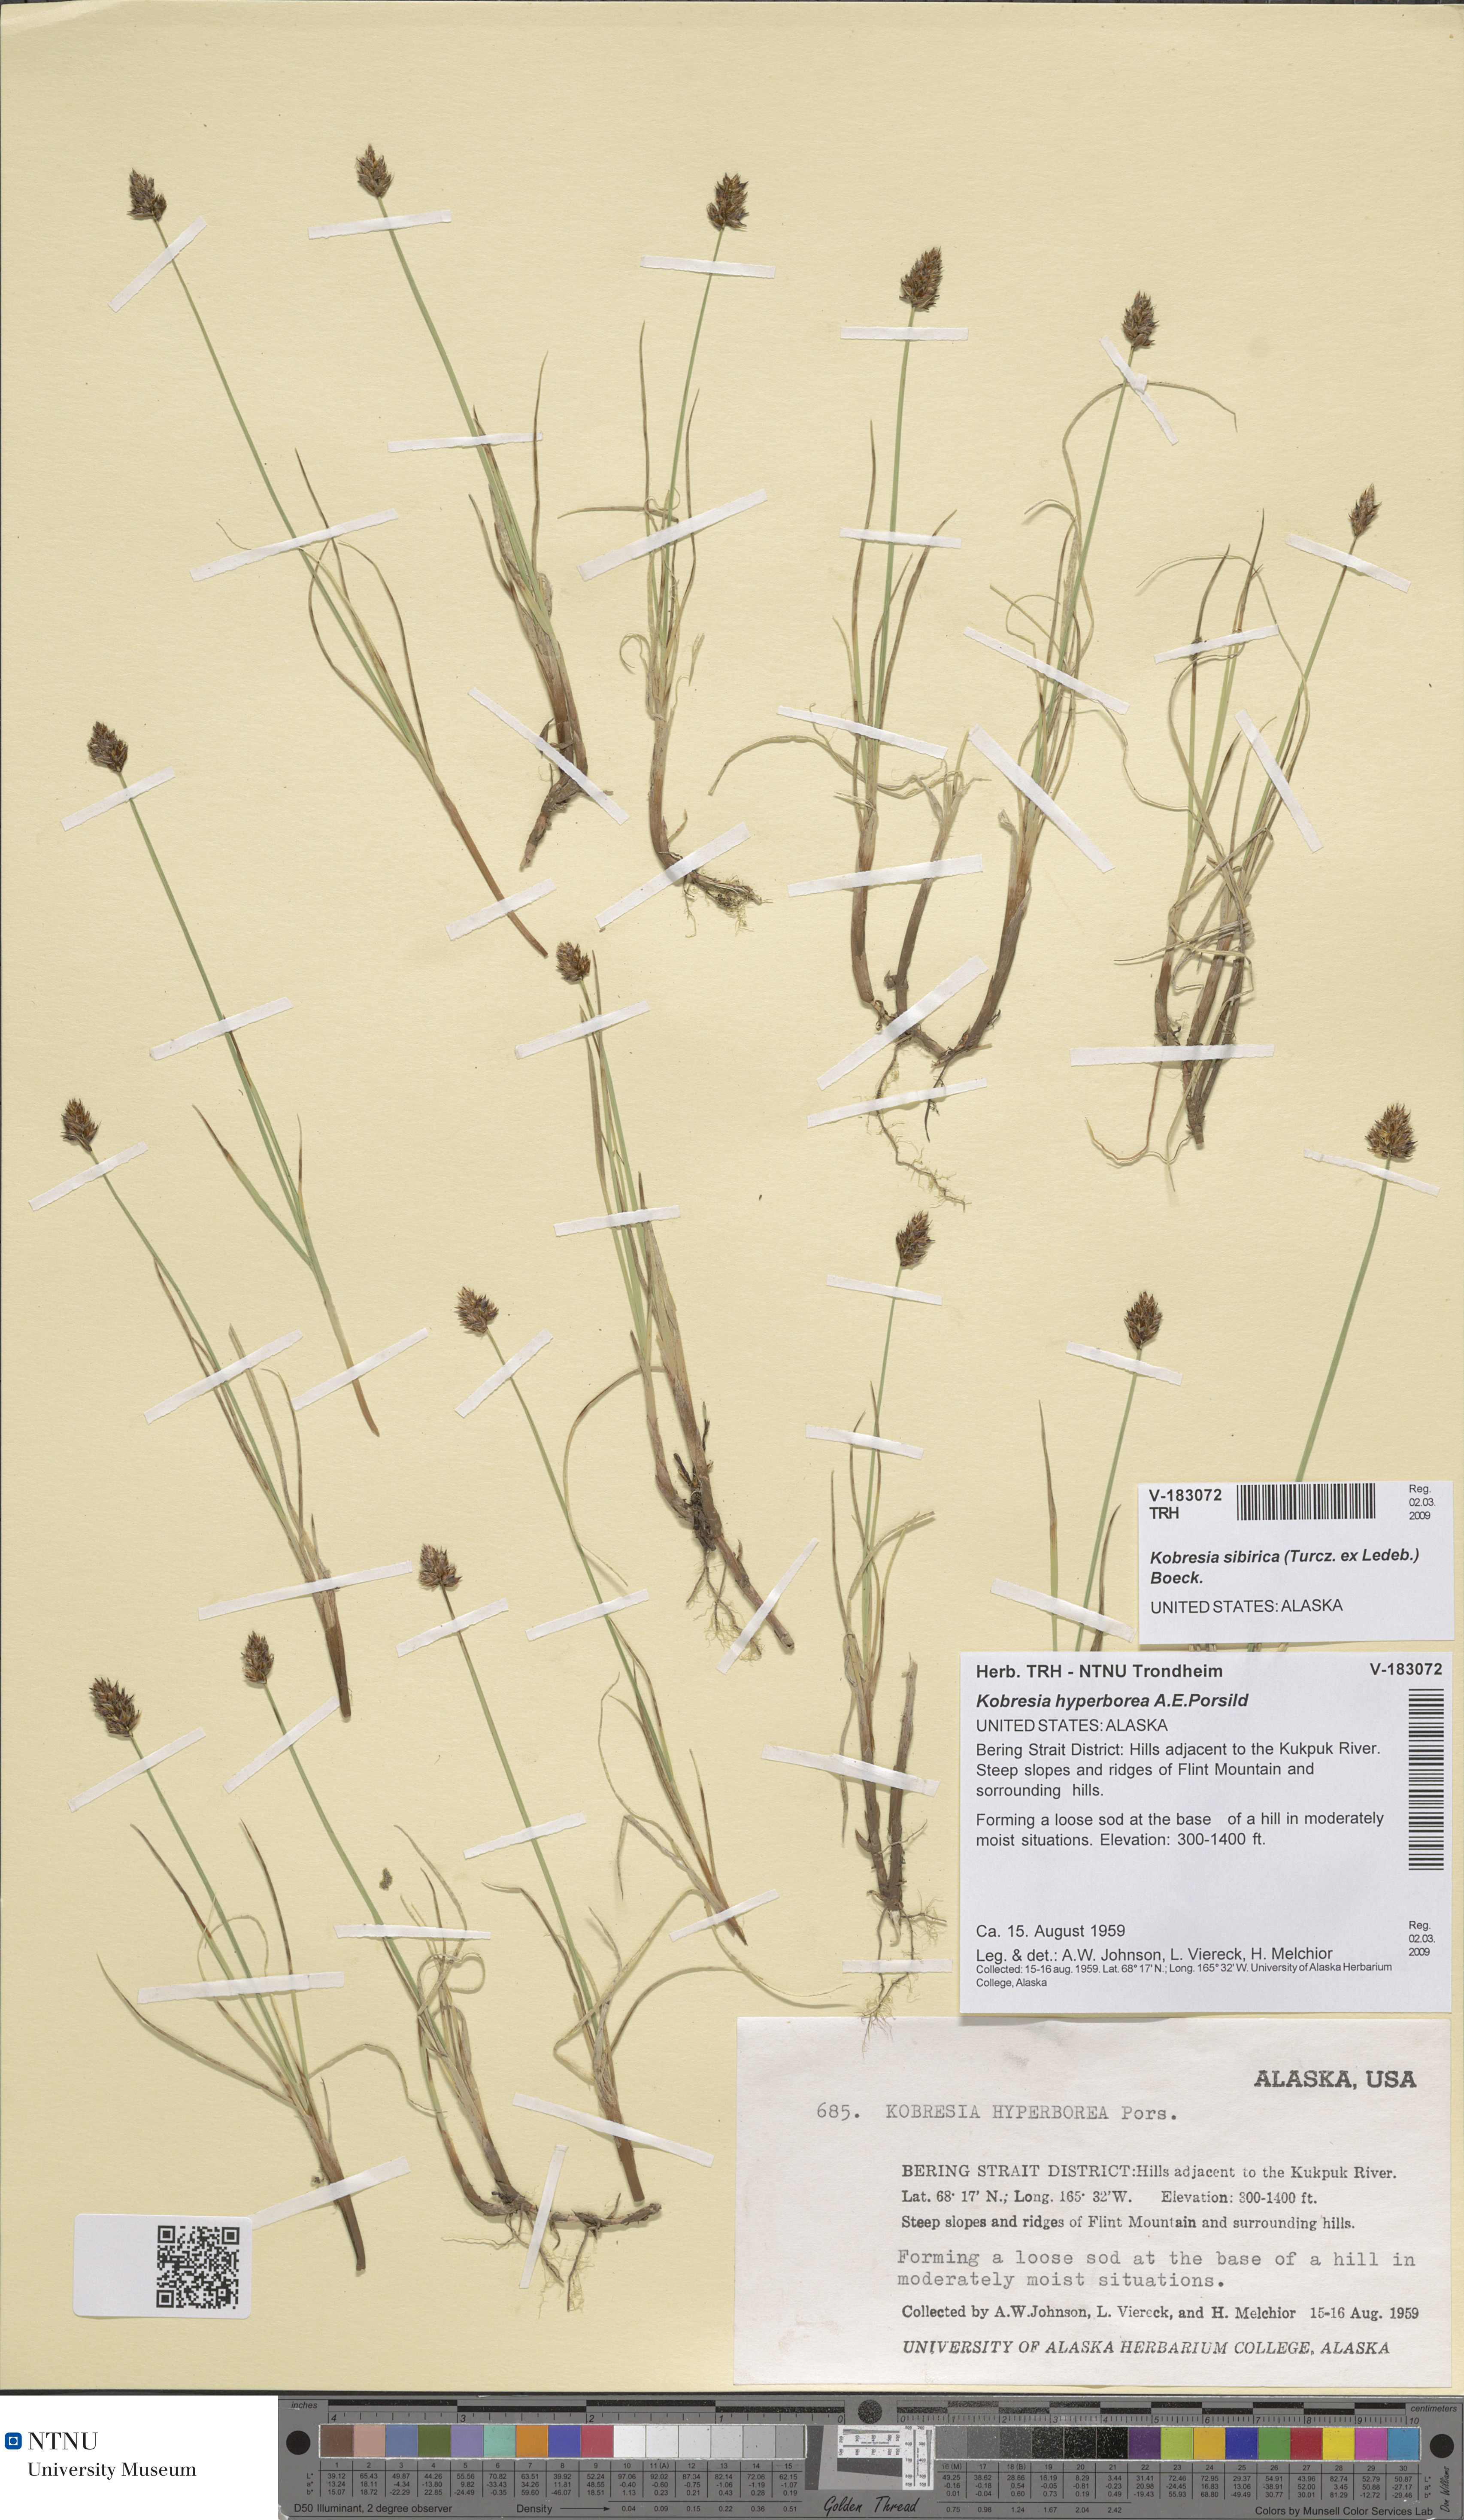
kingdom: Plantae
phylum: Tracheophyta
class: Liliopsida
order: Poales
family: Cyperaceae
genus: Carex
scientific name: Carex macroprophylla
